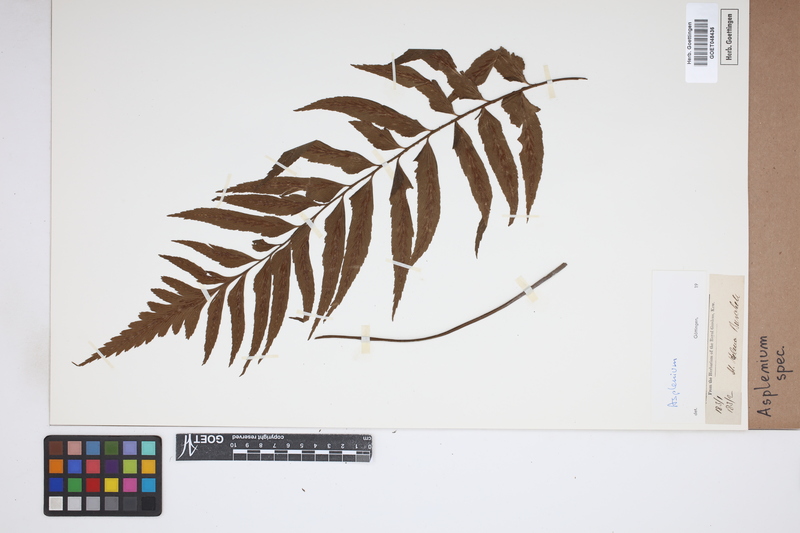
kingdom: Plantae
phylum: Tracheophyta
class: Polypodiopsida
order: Polypodiales
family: Aspleniaceae
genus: Asplenium
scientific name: Asplenium
